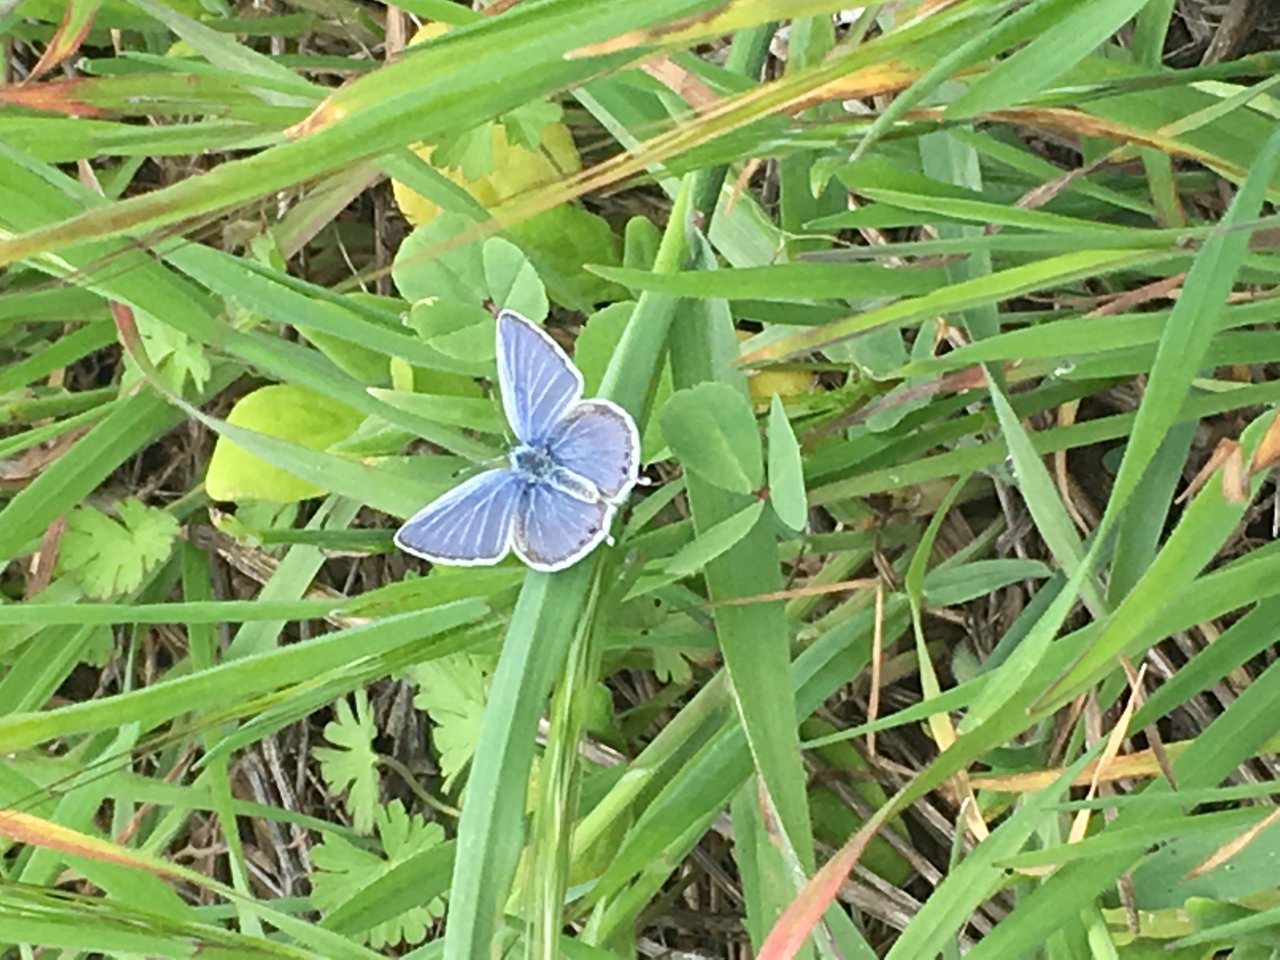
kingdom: Animalia
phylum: Arthropoda
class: Insecta
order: Lepidoptera
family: Lycaenidae
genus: Elkalyce
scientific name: Elkalyce amyntula
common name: Western Tailed-Blue
